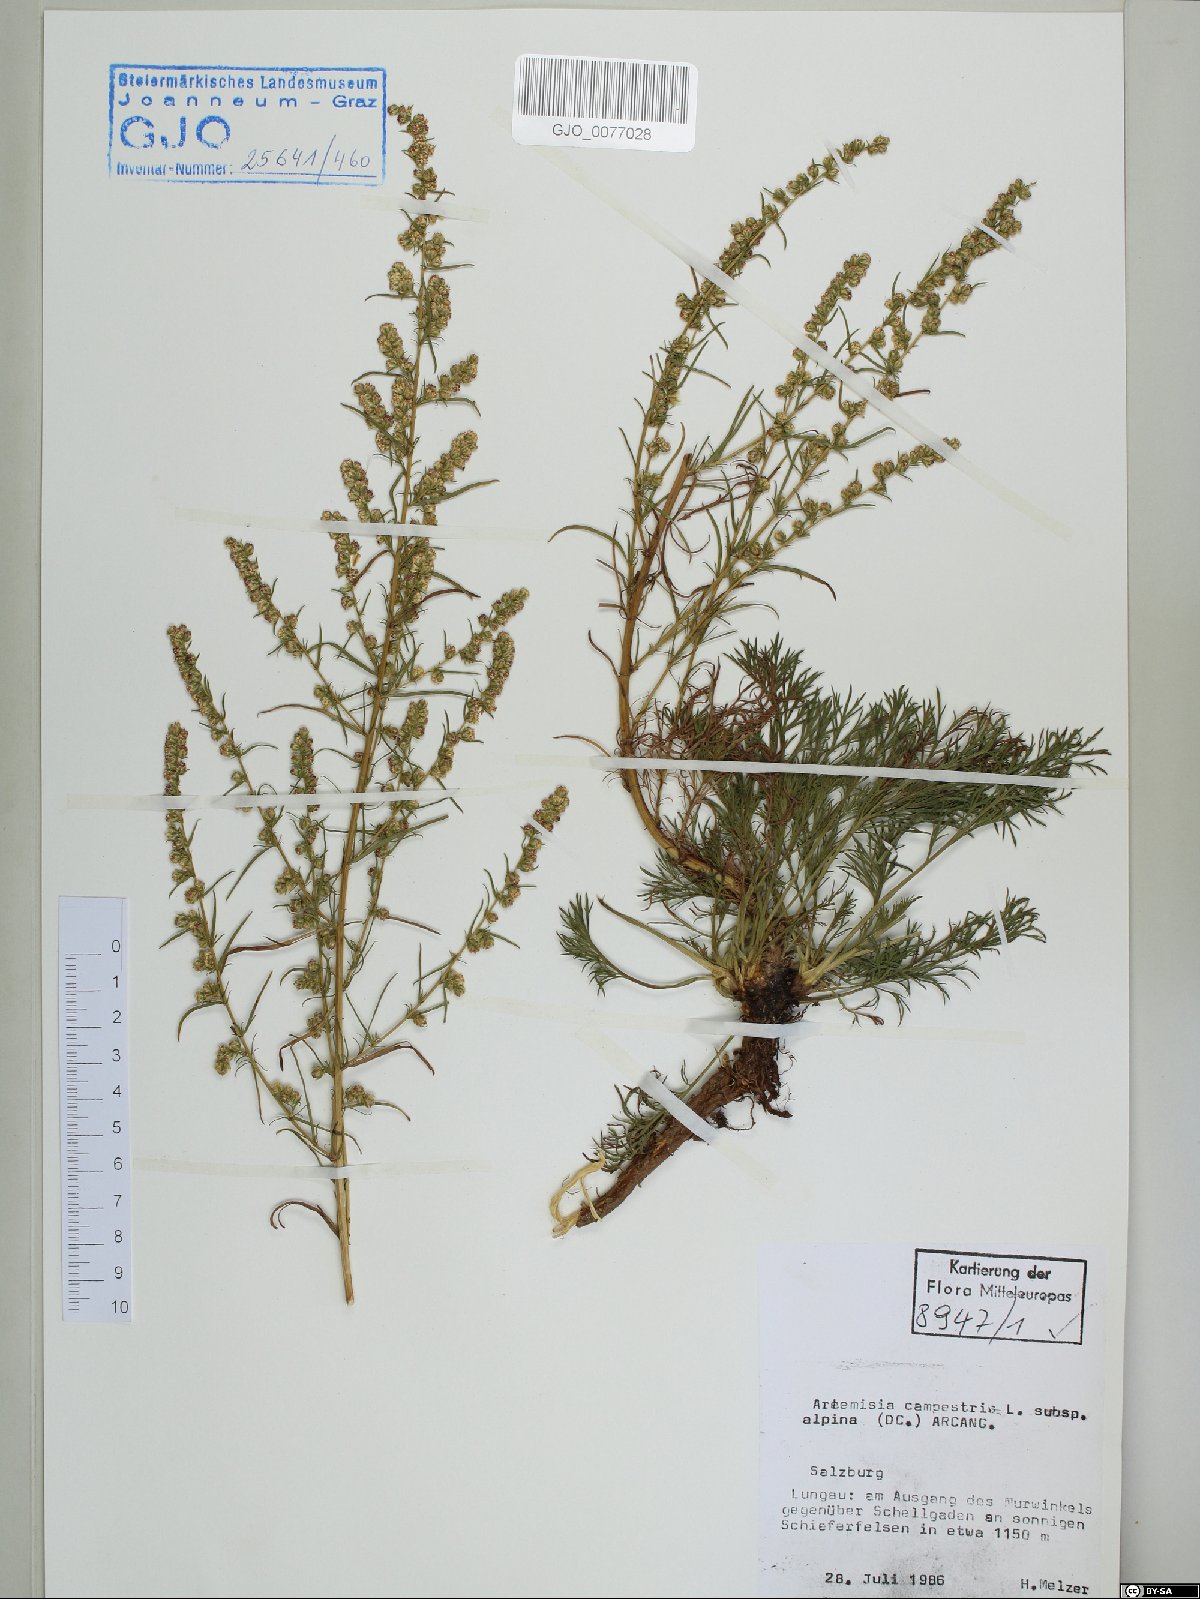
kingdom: Plantae
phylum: Tracheophyta
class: Magnoliopsida
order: Asterales
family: Asteraceae
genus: Artemisia
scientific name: Artemisia campestris
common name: Field wormwood
